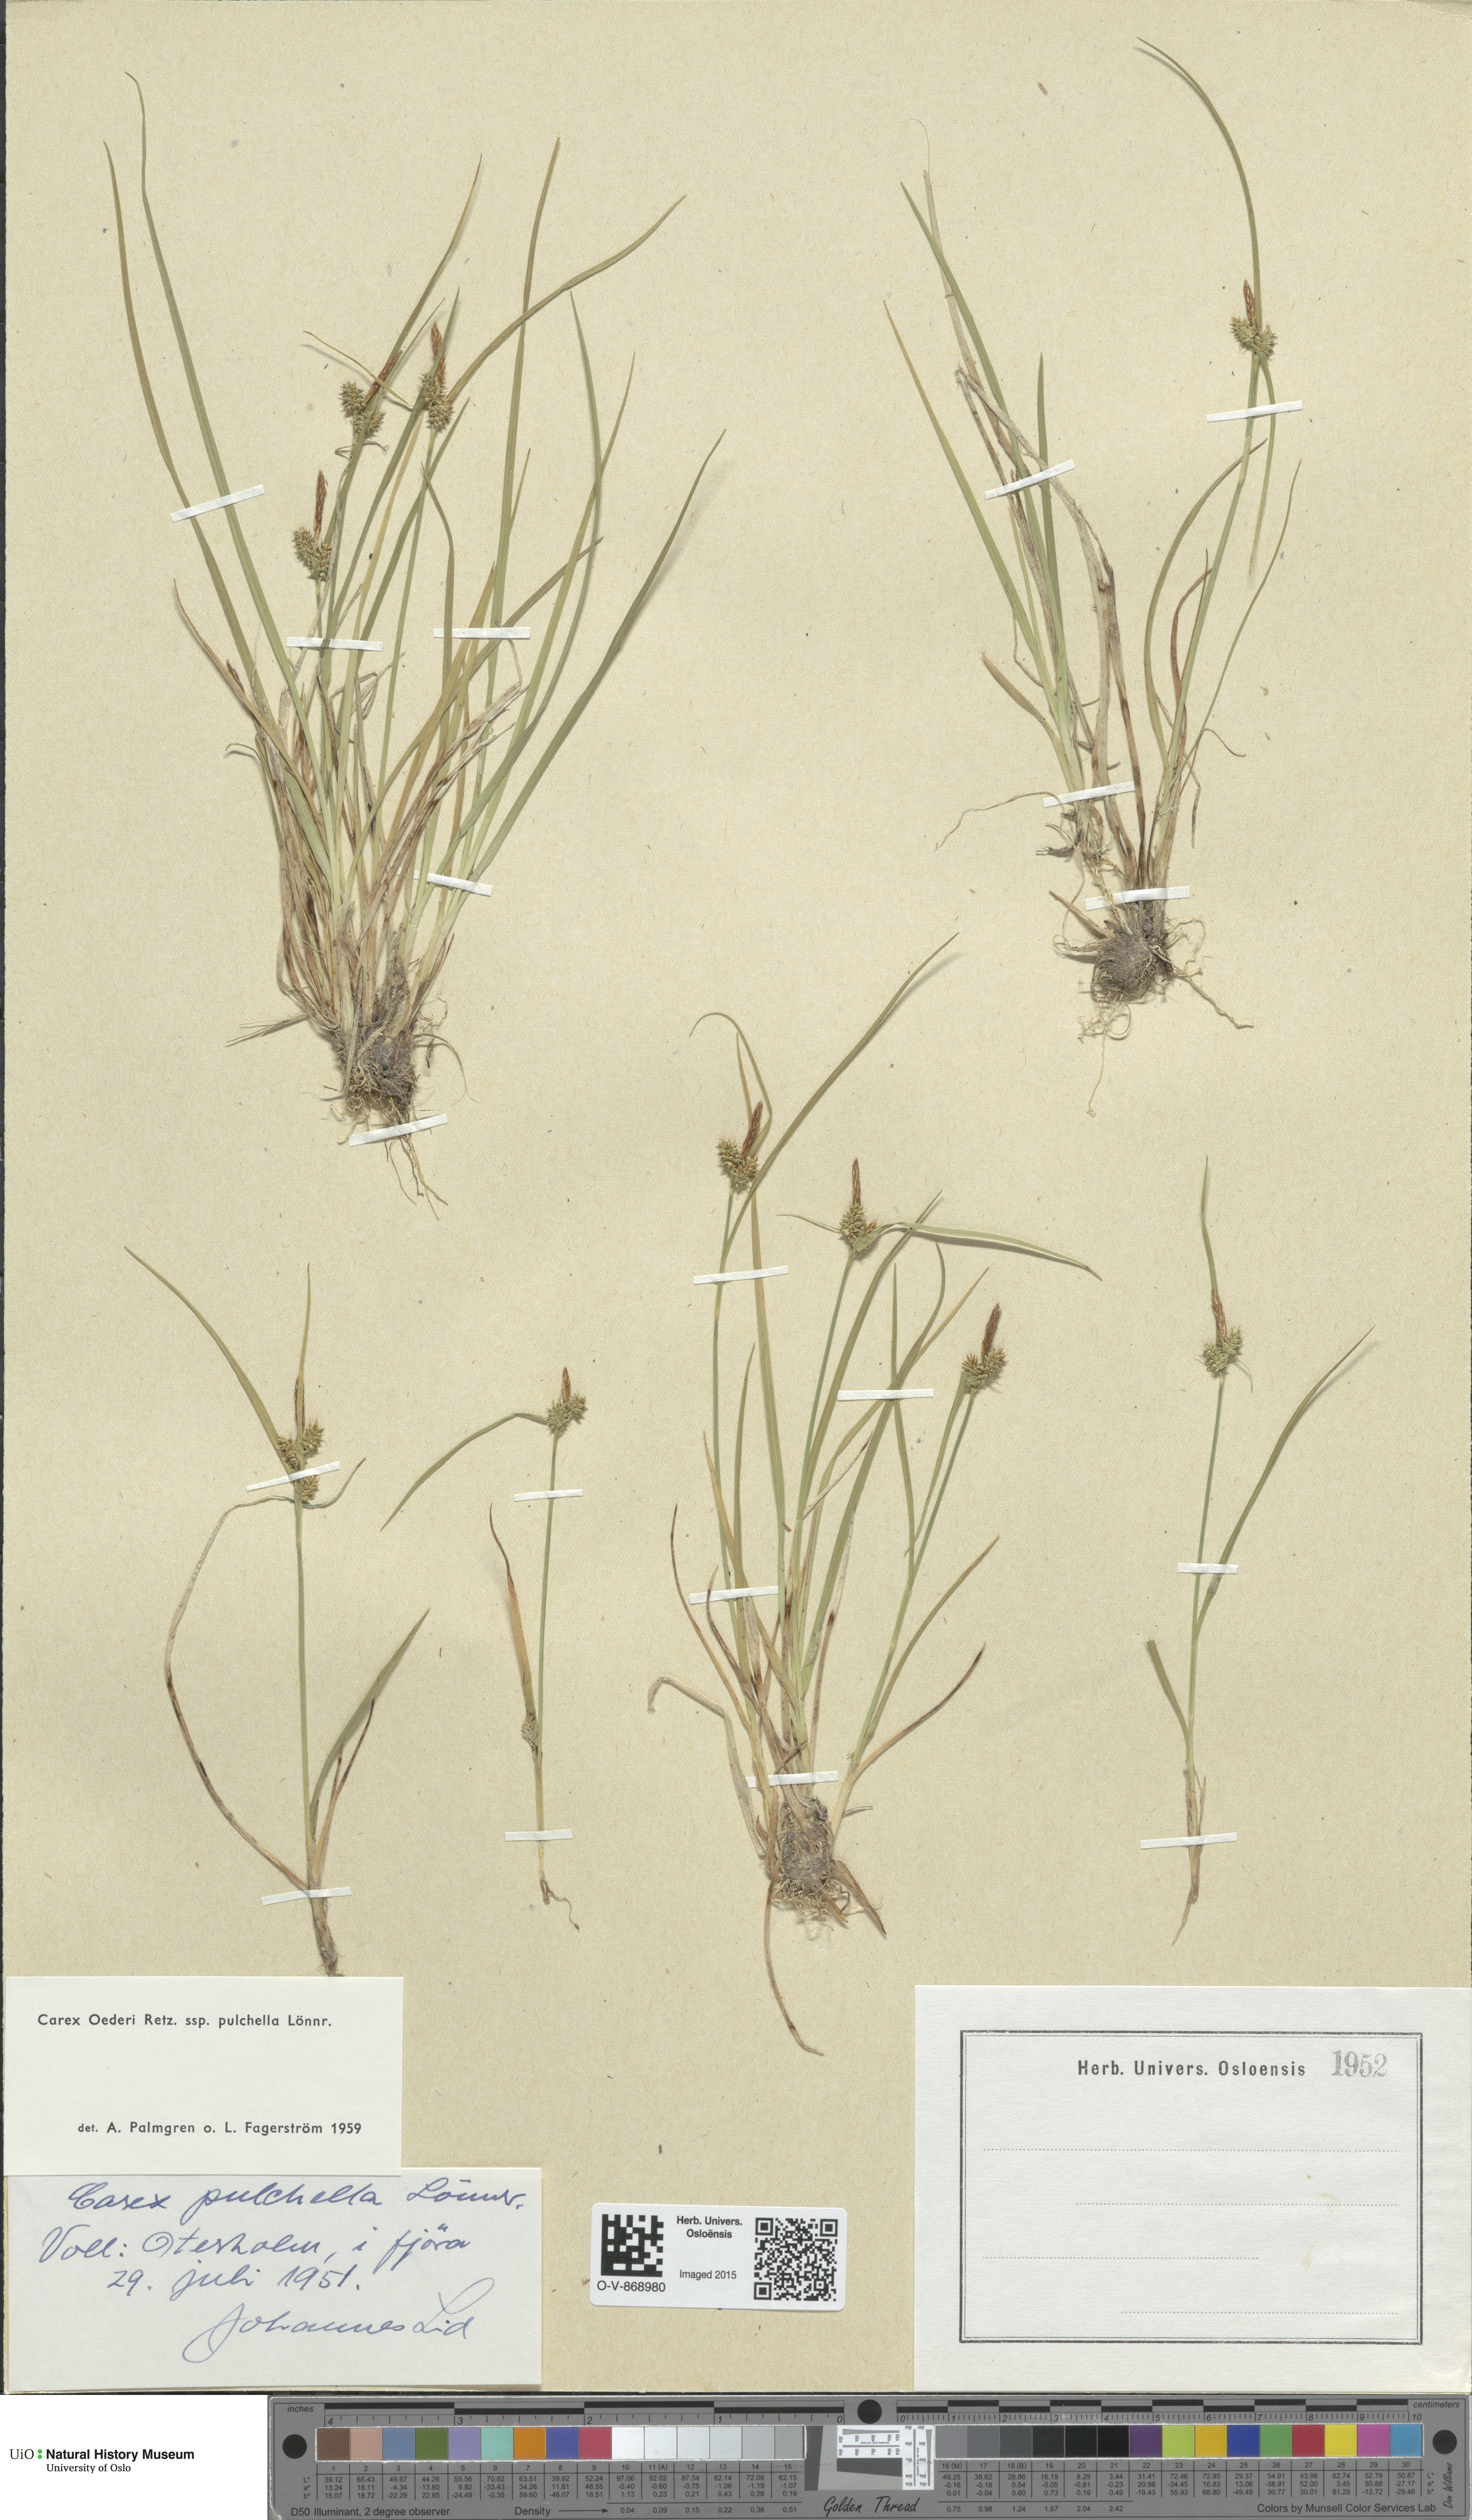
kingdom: Plantae
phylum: Tracheophyta
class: Liliopsida
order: Poales
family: Cyperaceae
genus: Carex
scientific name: Carex oederi
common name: Common & small-fruited yellow-sedge
